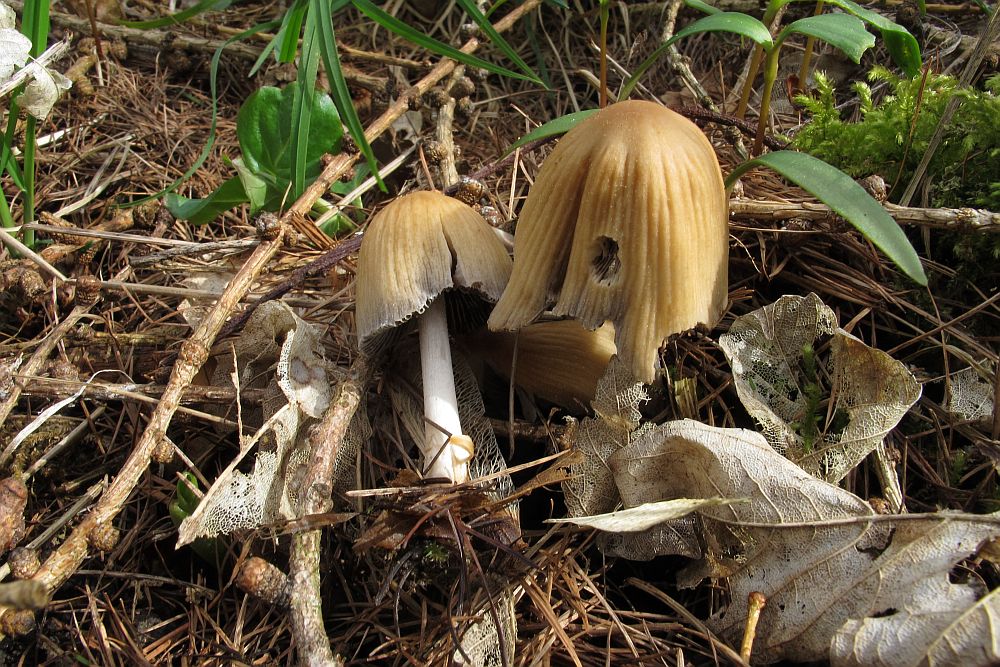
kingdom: Fungi
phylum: Basidiomycota
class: Agaricomycetes
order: Agaricales
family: Psathyrellaceae
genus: Coprinellus
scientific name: Coprinellus micaceus
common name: glimmer-blækhat
